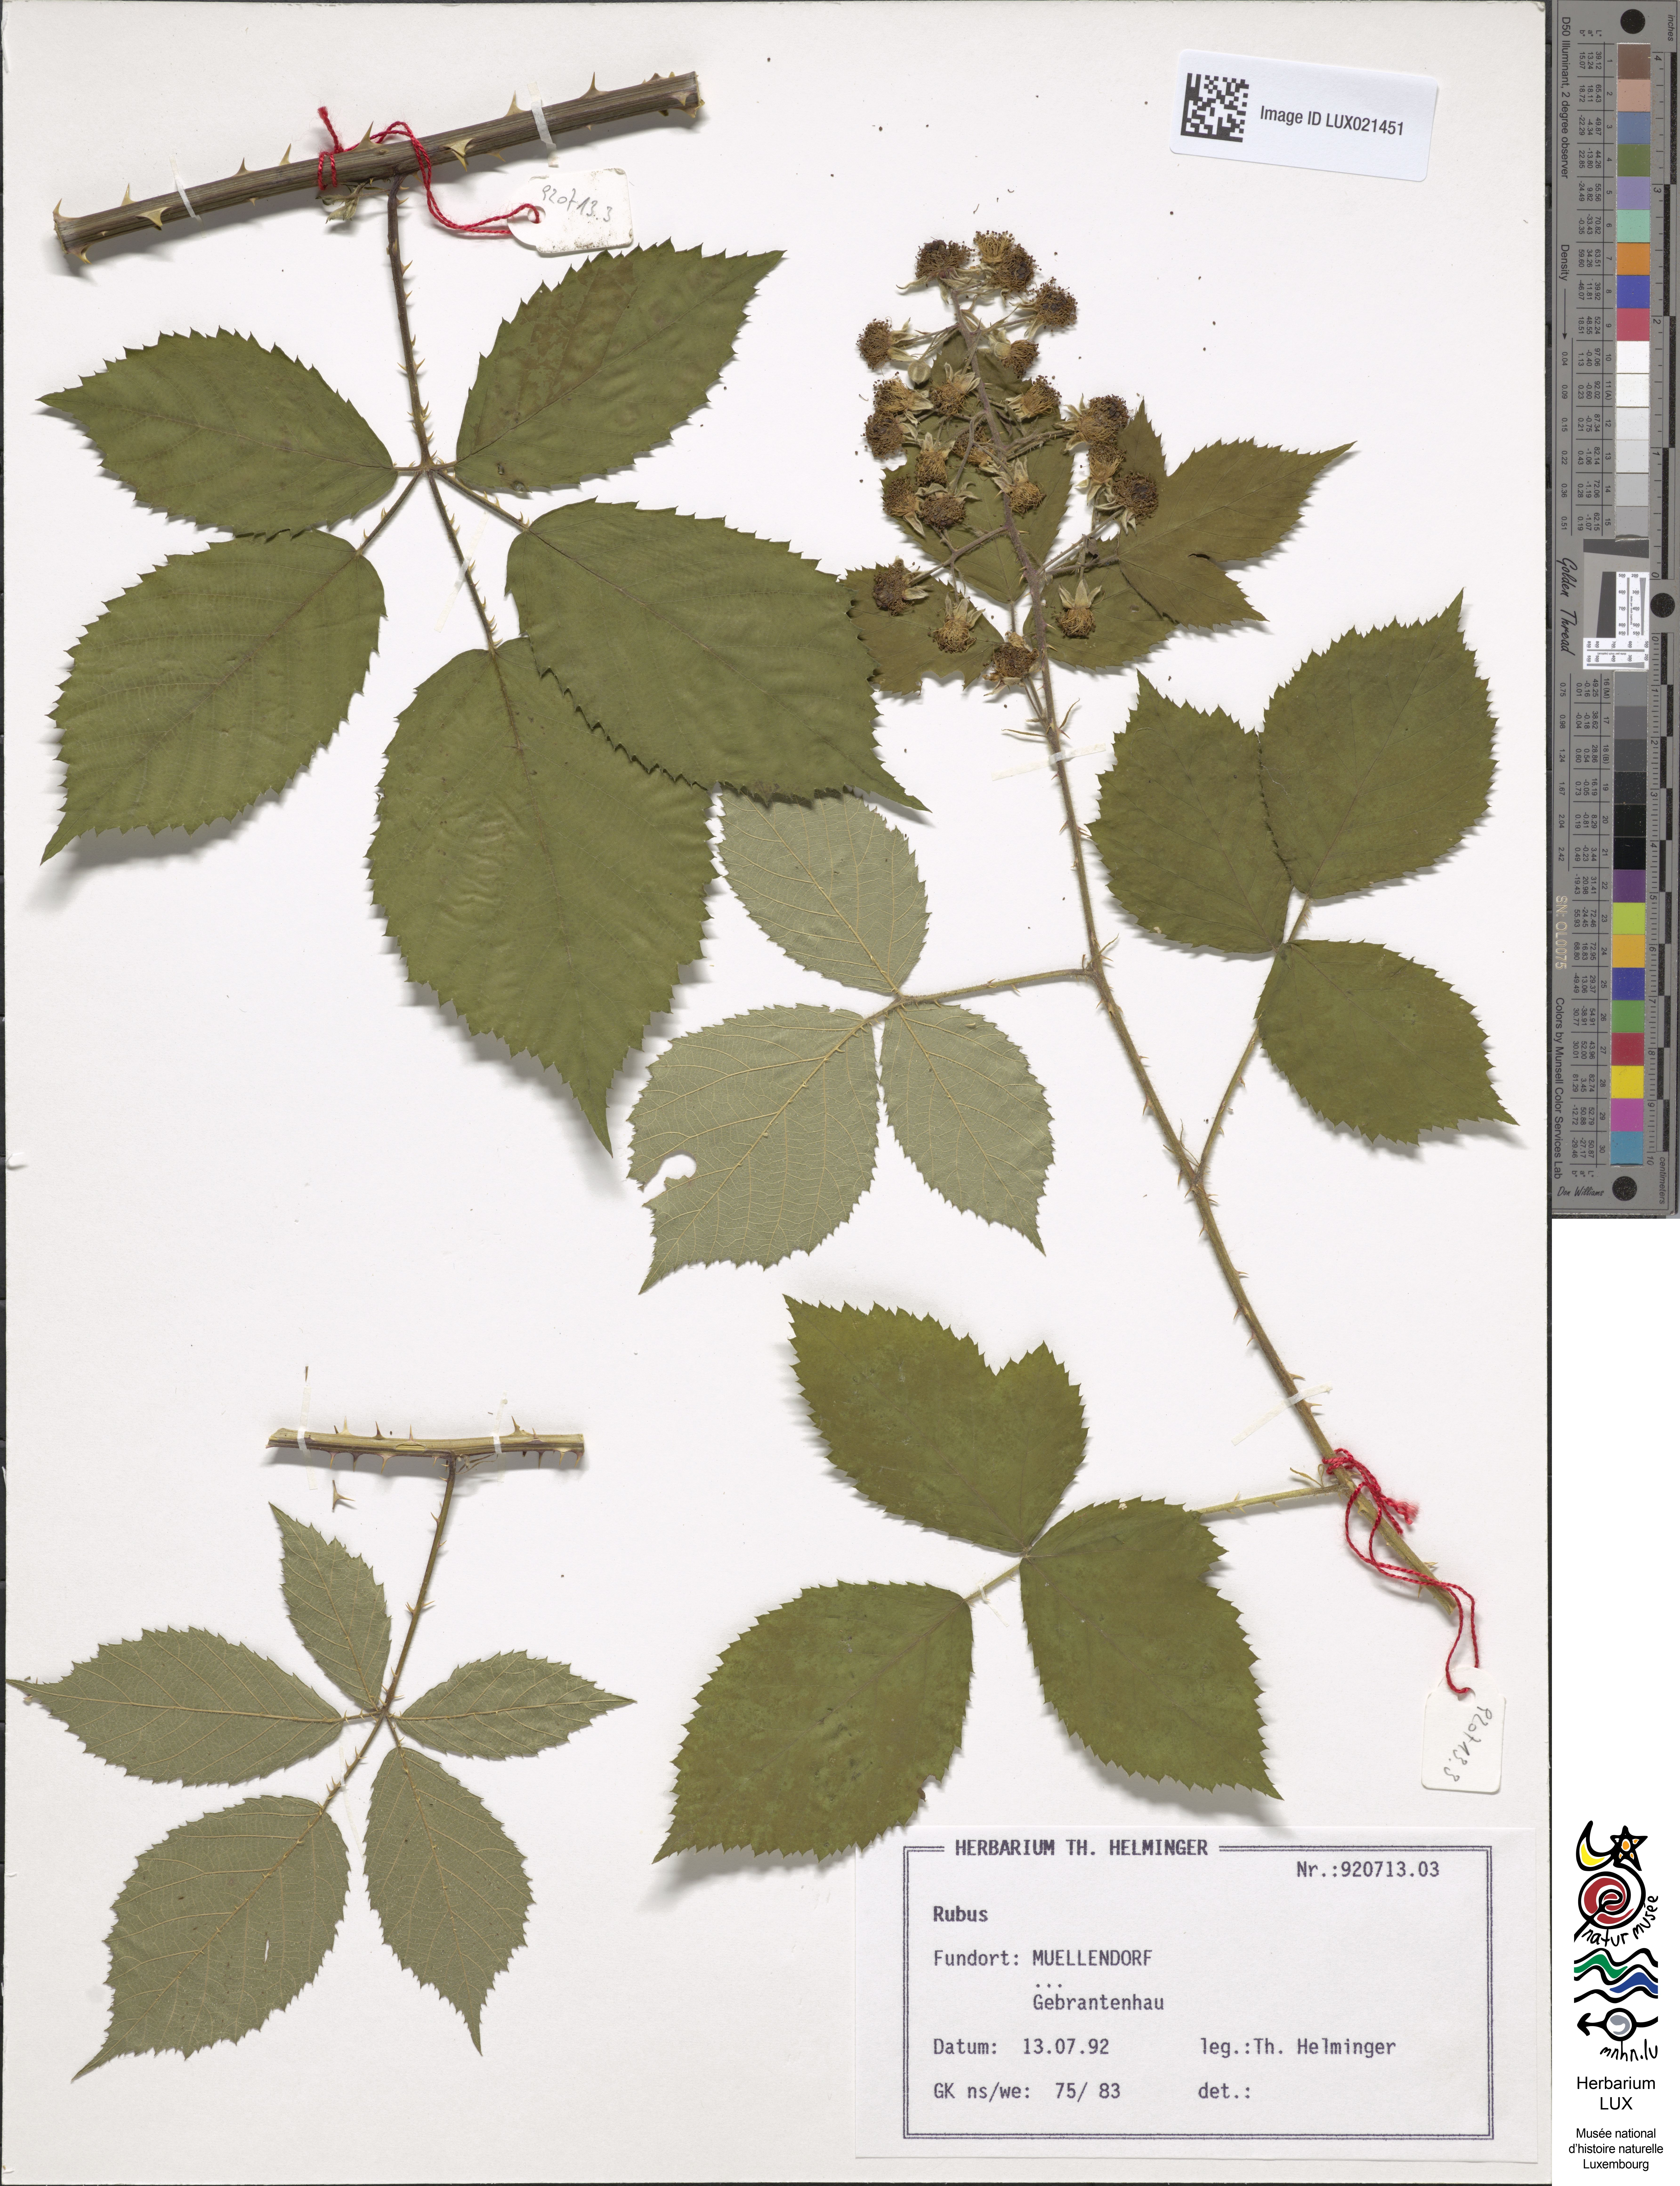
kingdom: Plantae
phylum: Tracheophyta
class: Magnoliopsida
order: Rosales
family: Rosaceae
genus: Rubus
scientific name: Rubus
